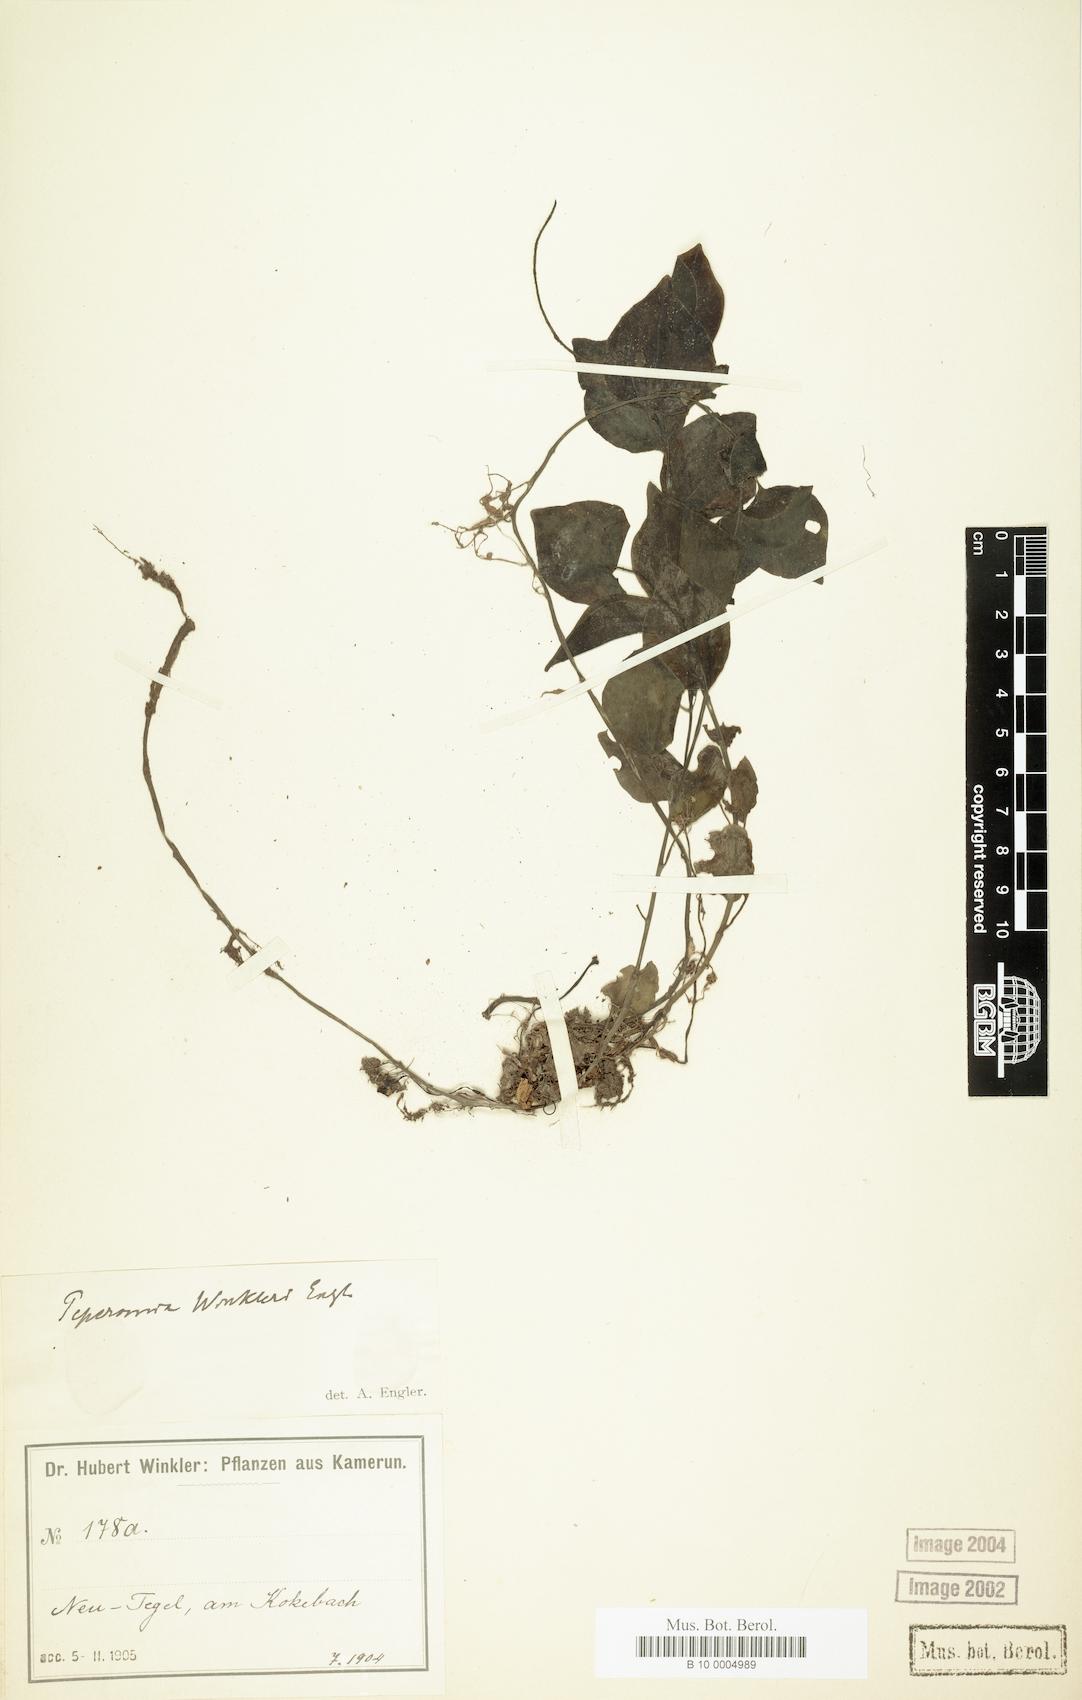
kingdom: Plantae
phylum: Tracheophyta
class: Magnoliopsida
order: Piperales
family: Piperaceae
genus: Peperomia
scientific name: Peperomia molleri
